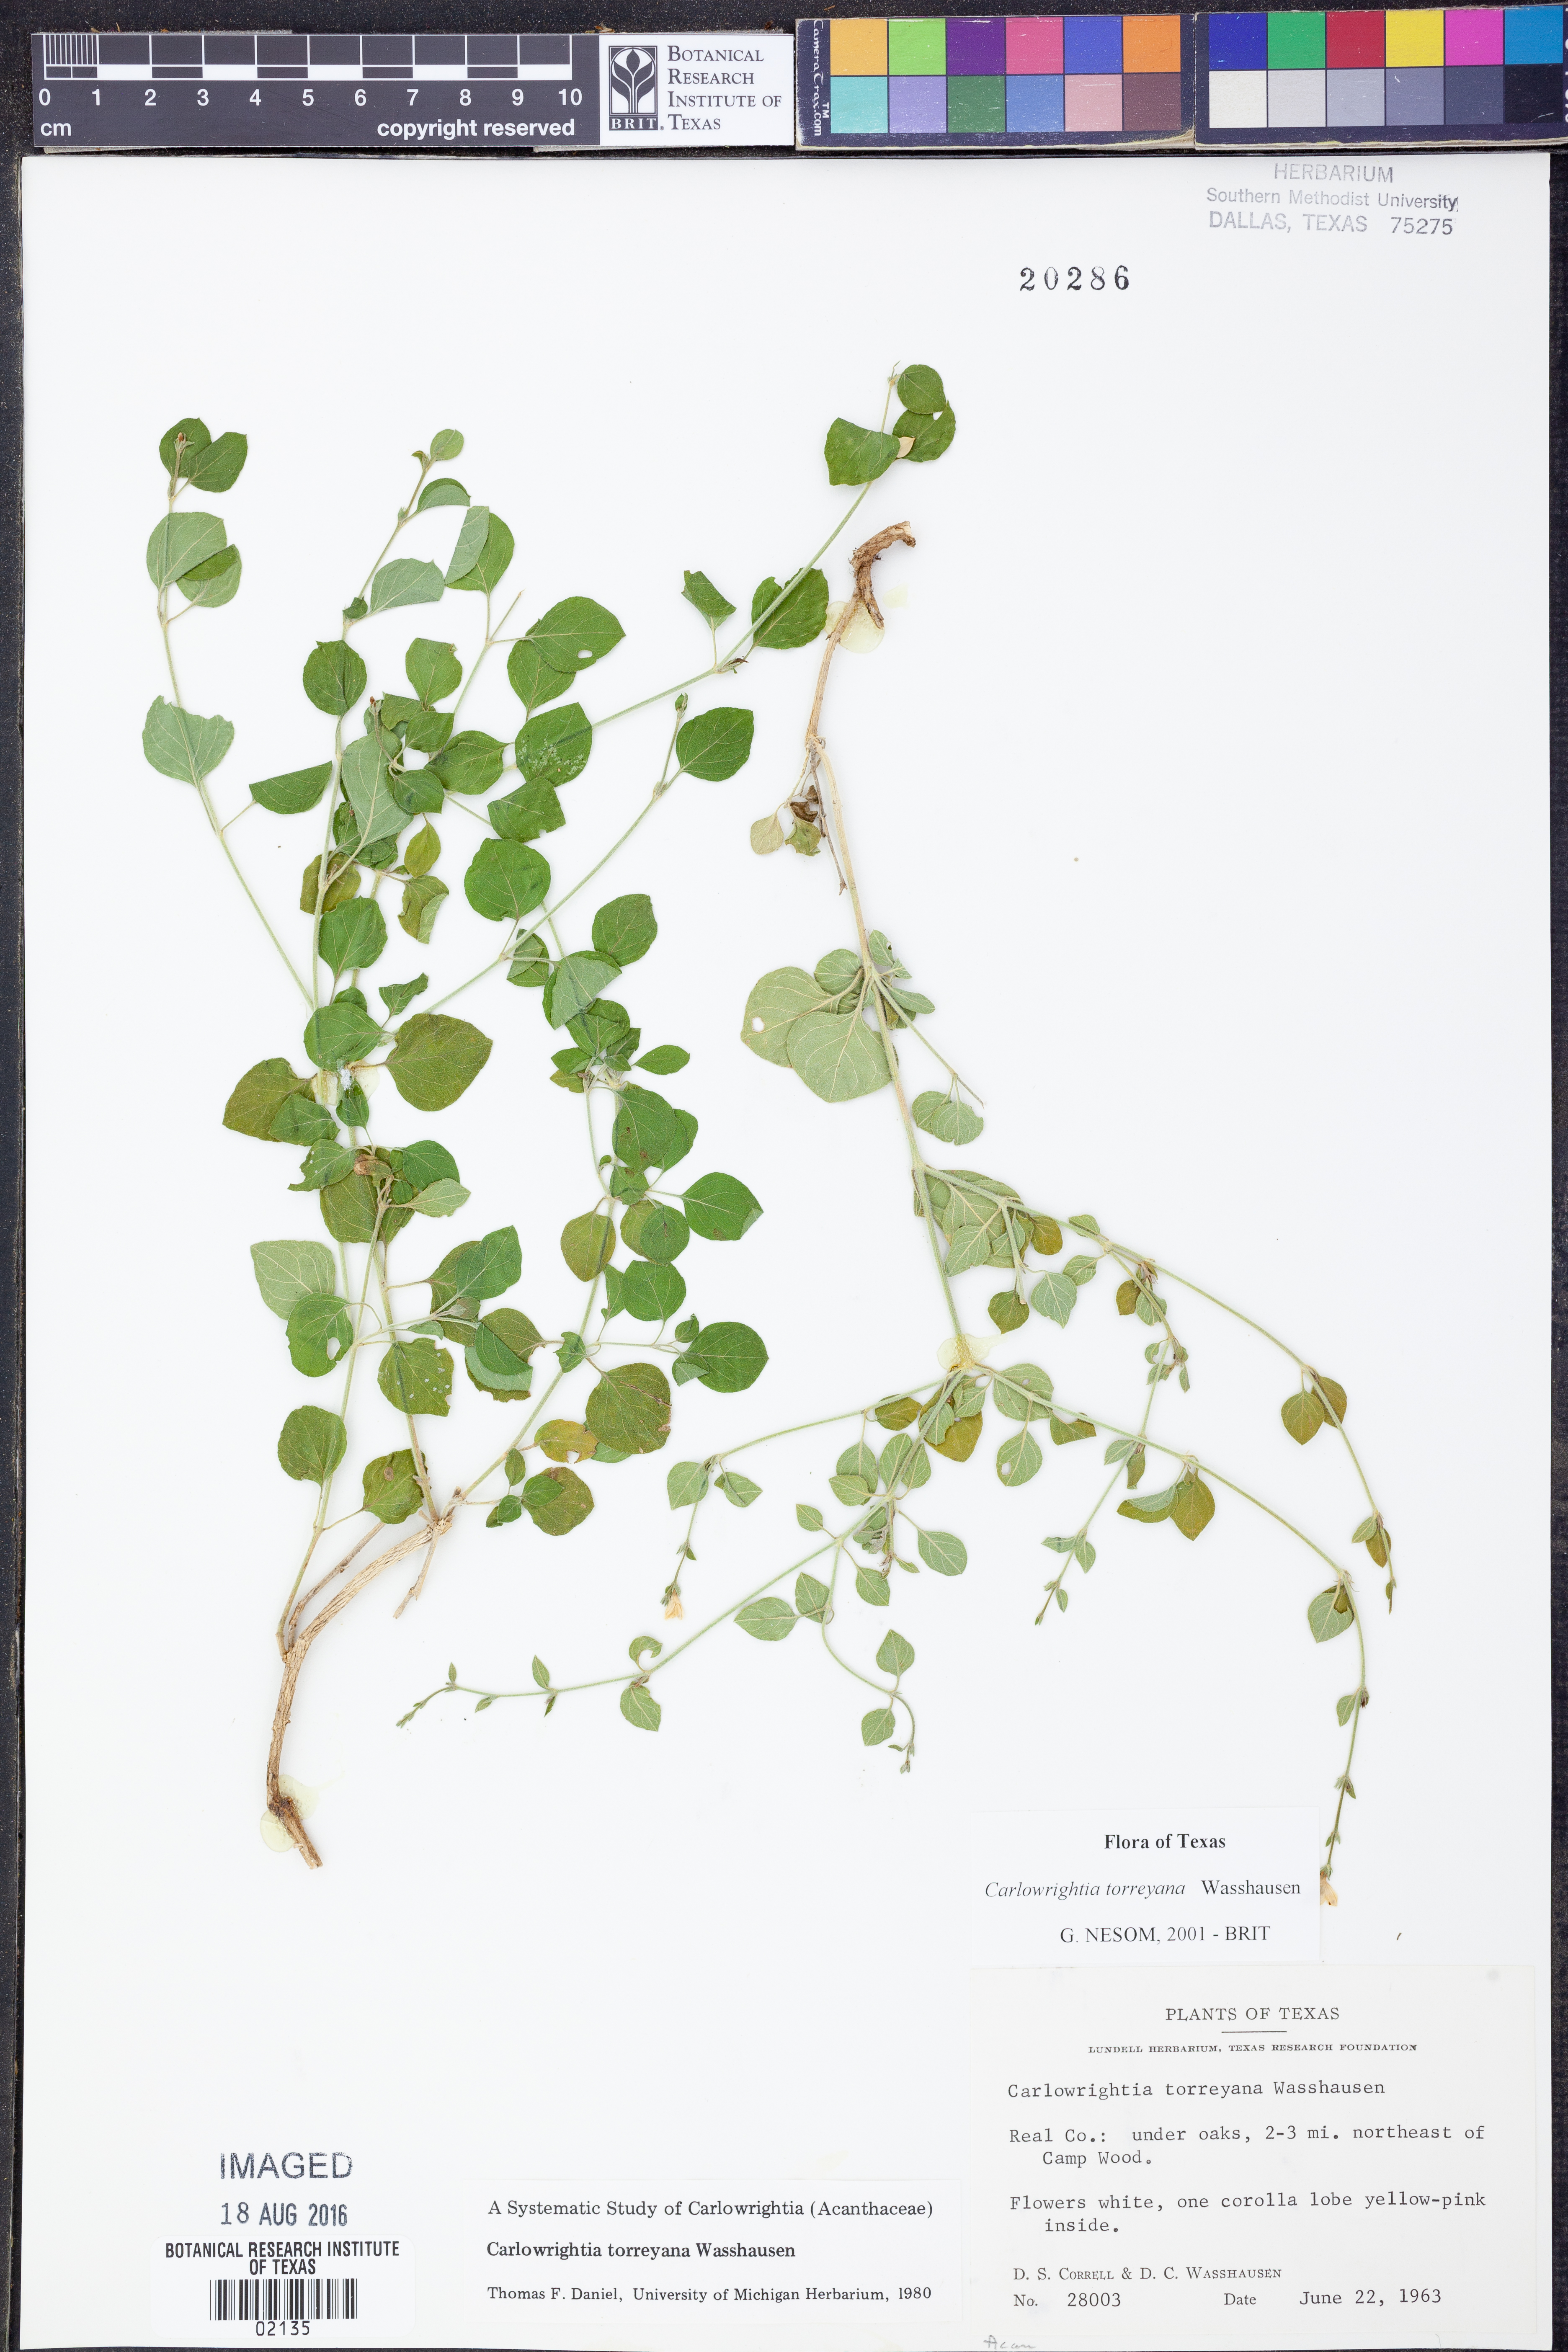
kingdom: Plantae
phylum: Tracheophyta
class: Magnoliopsida
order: Lamiales
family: Acanthaceae
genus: Carlowrightia
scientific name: Carlowrightia torreyana
